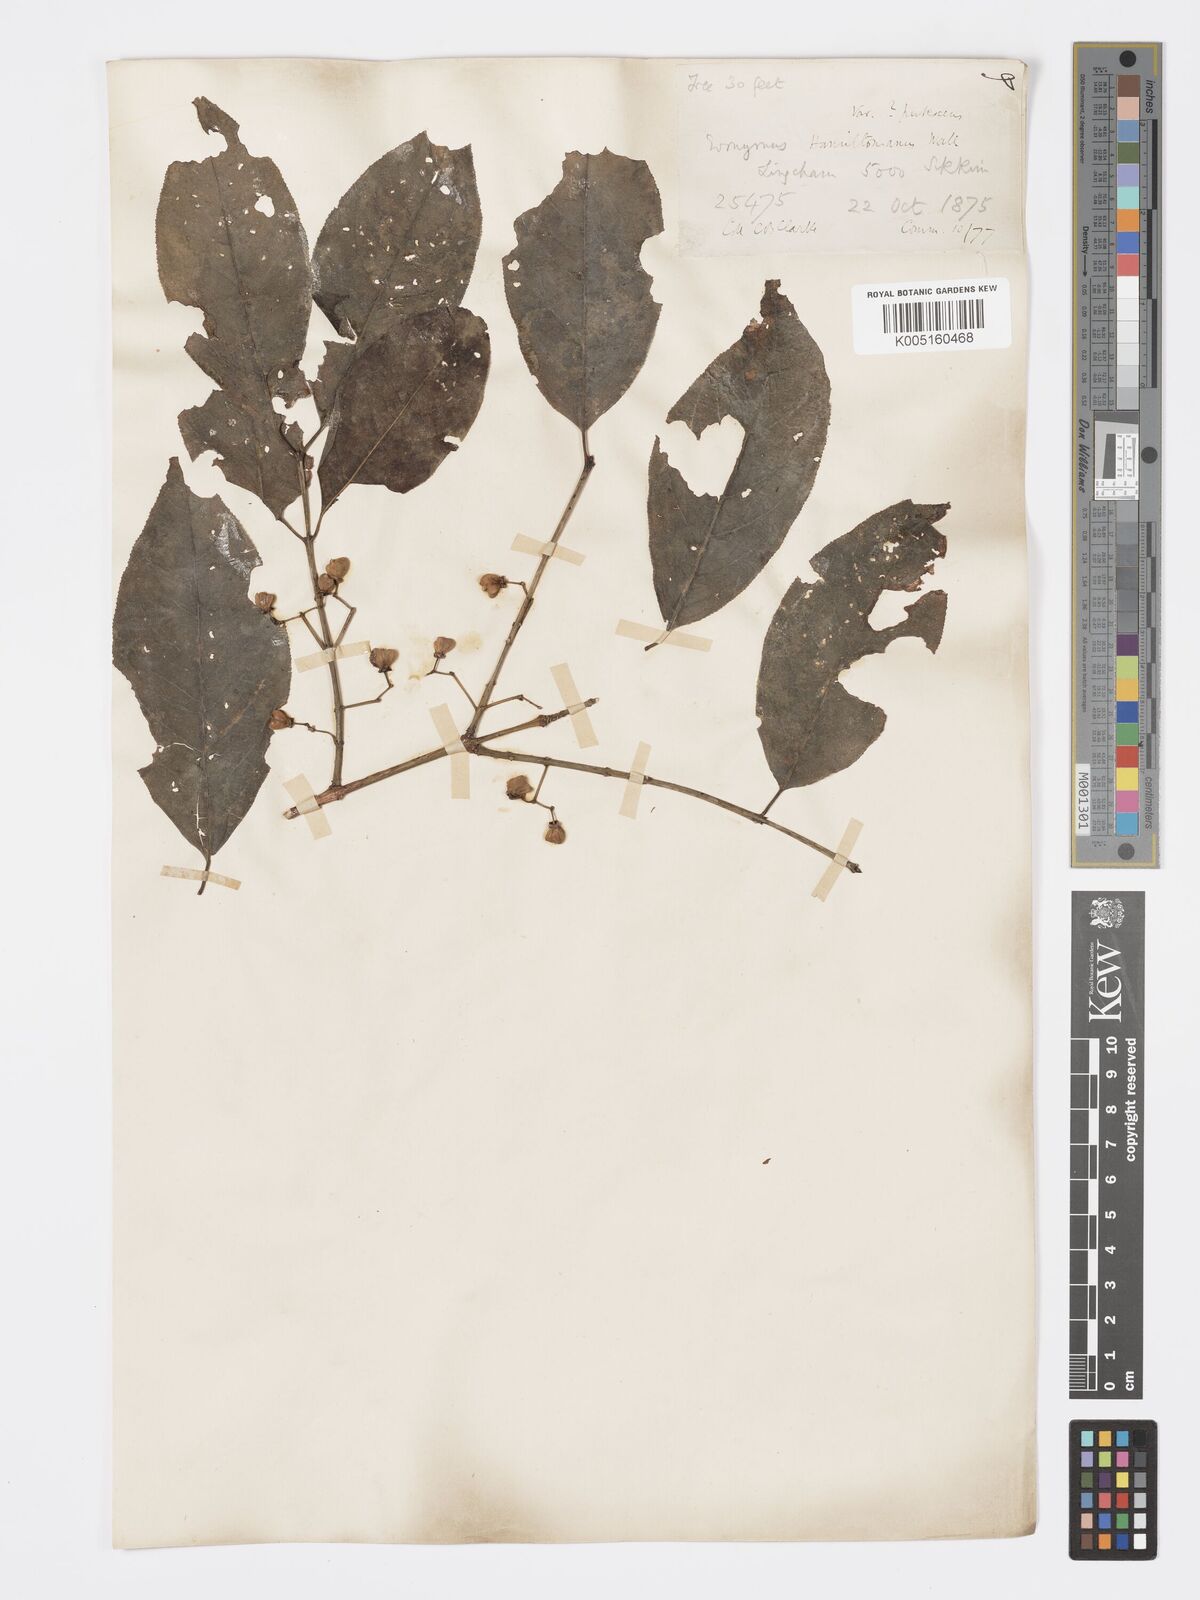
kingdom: Plantae
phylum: Tracheophyta
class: Magnoliopsida
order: Celastrales
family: Celastraceae
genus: Euonymus
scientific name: Euonymus
